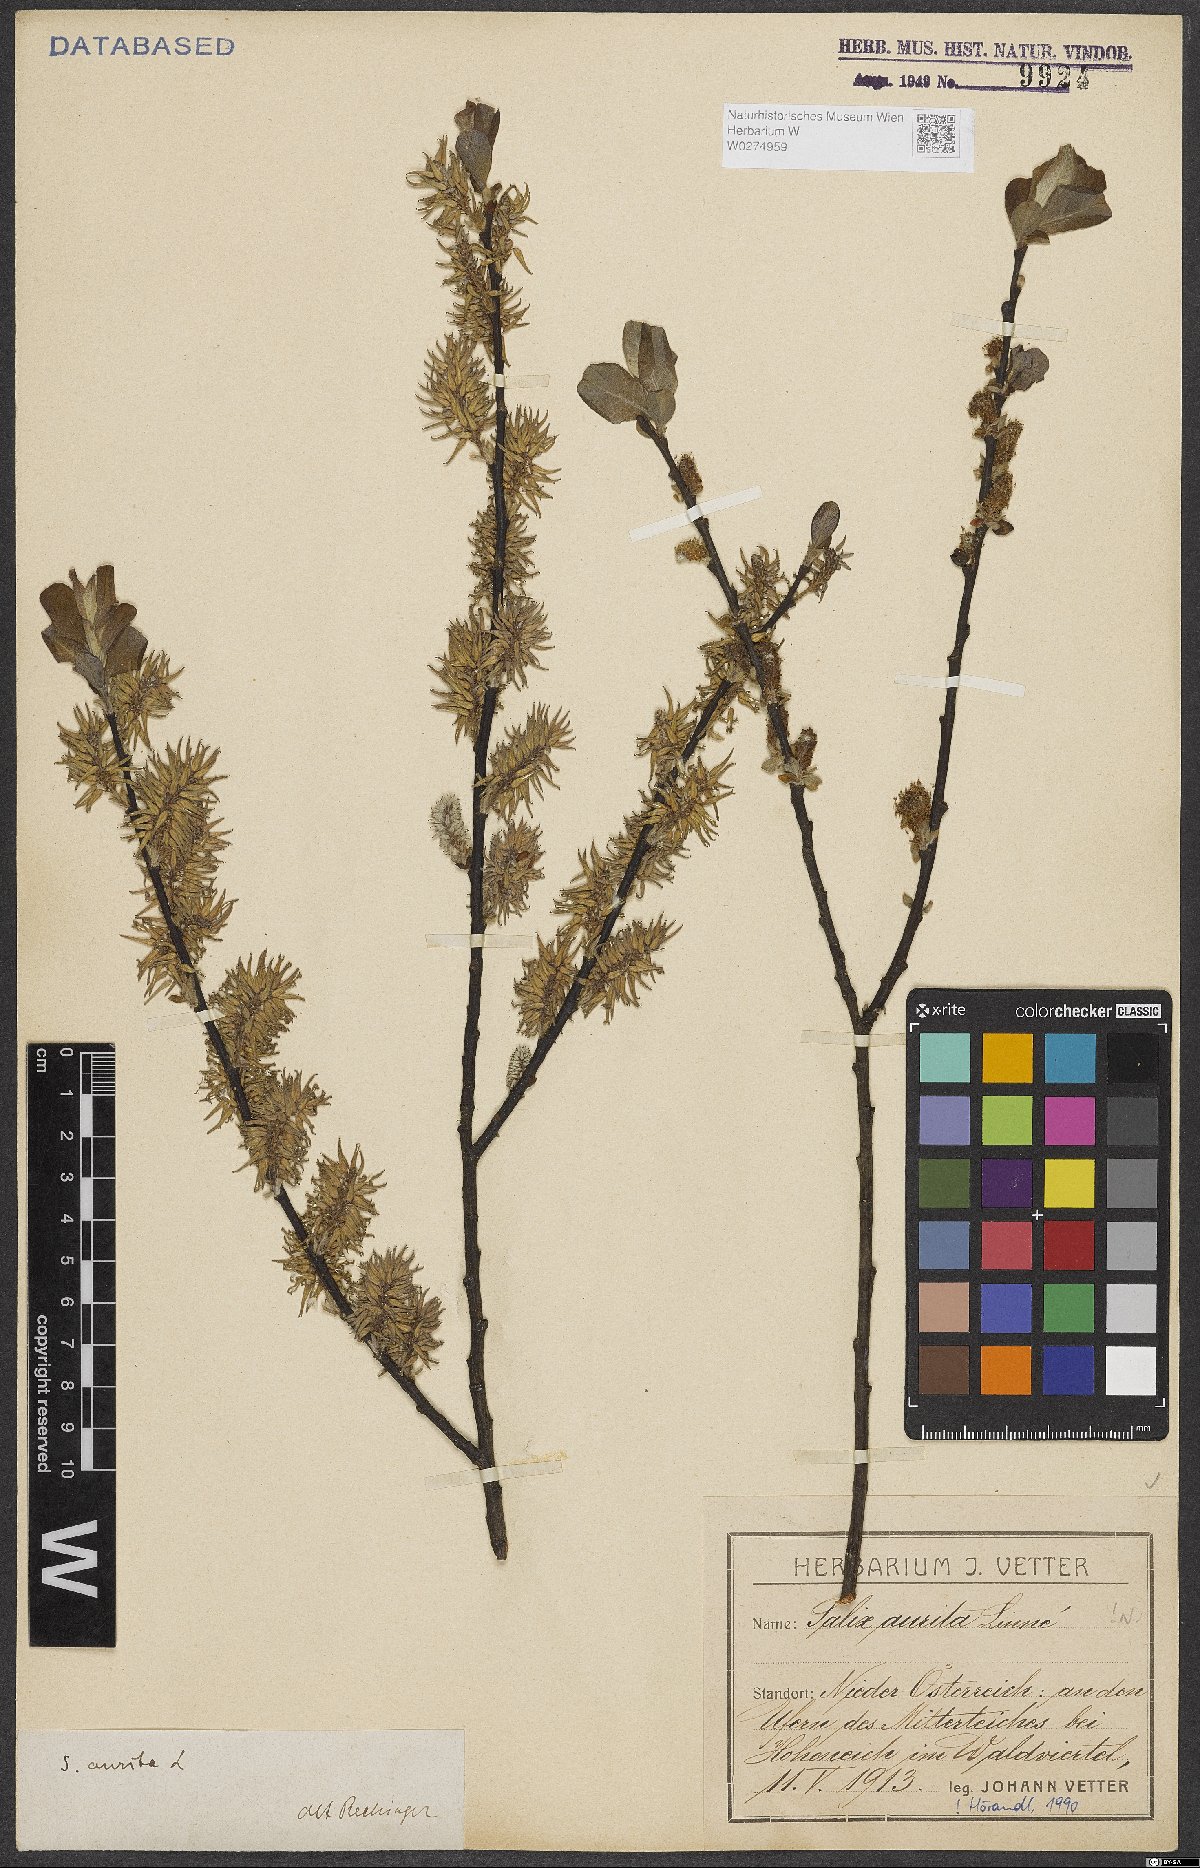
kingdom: Plantae
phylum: Tracheophyta
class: Magnoliopsida
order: Malpighiales
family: Salicaceae
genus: Salix
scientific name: Salix aurita
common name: Eared willow
